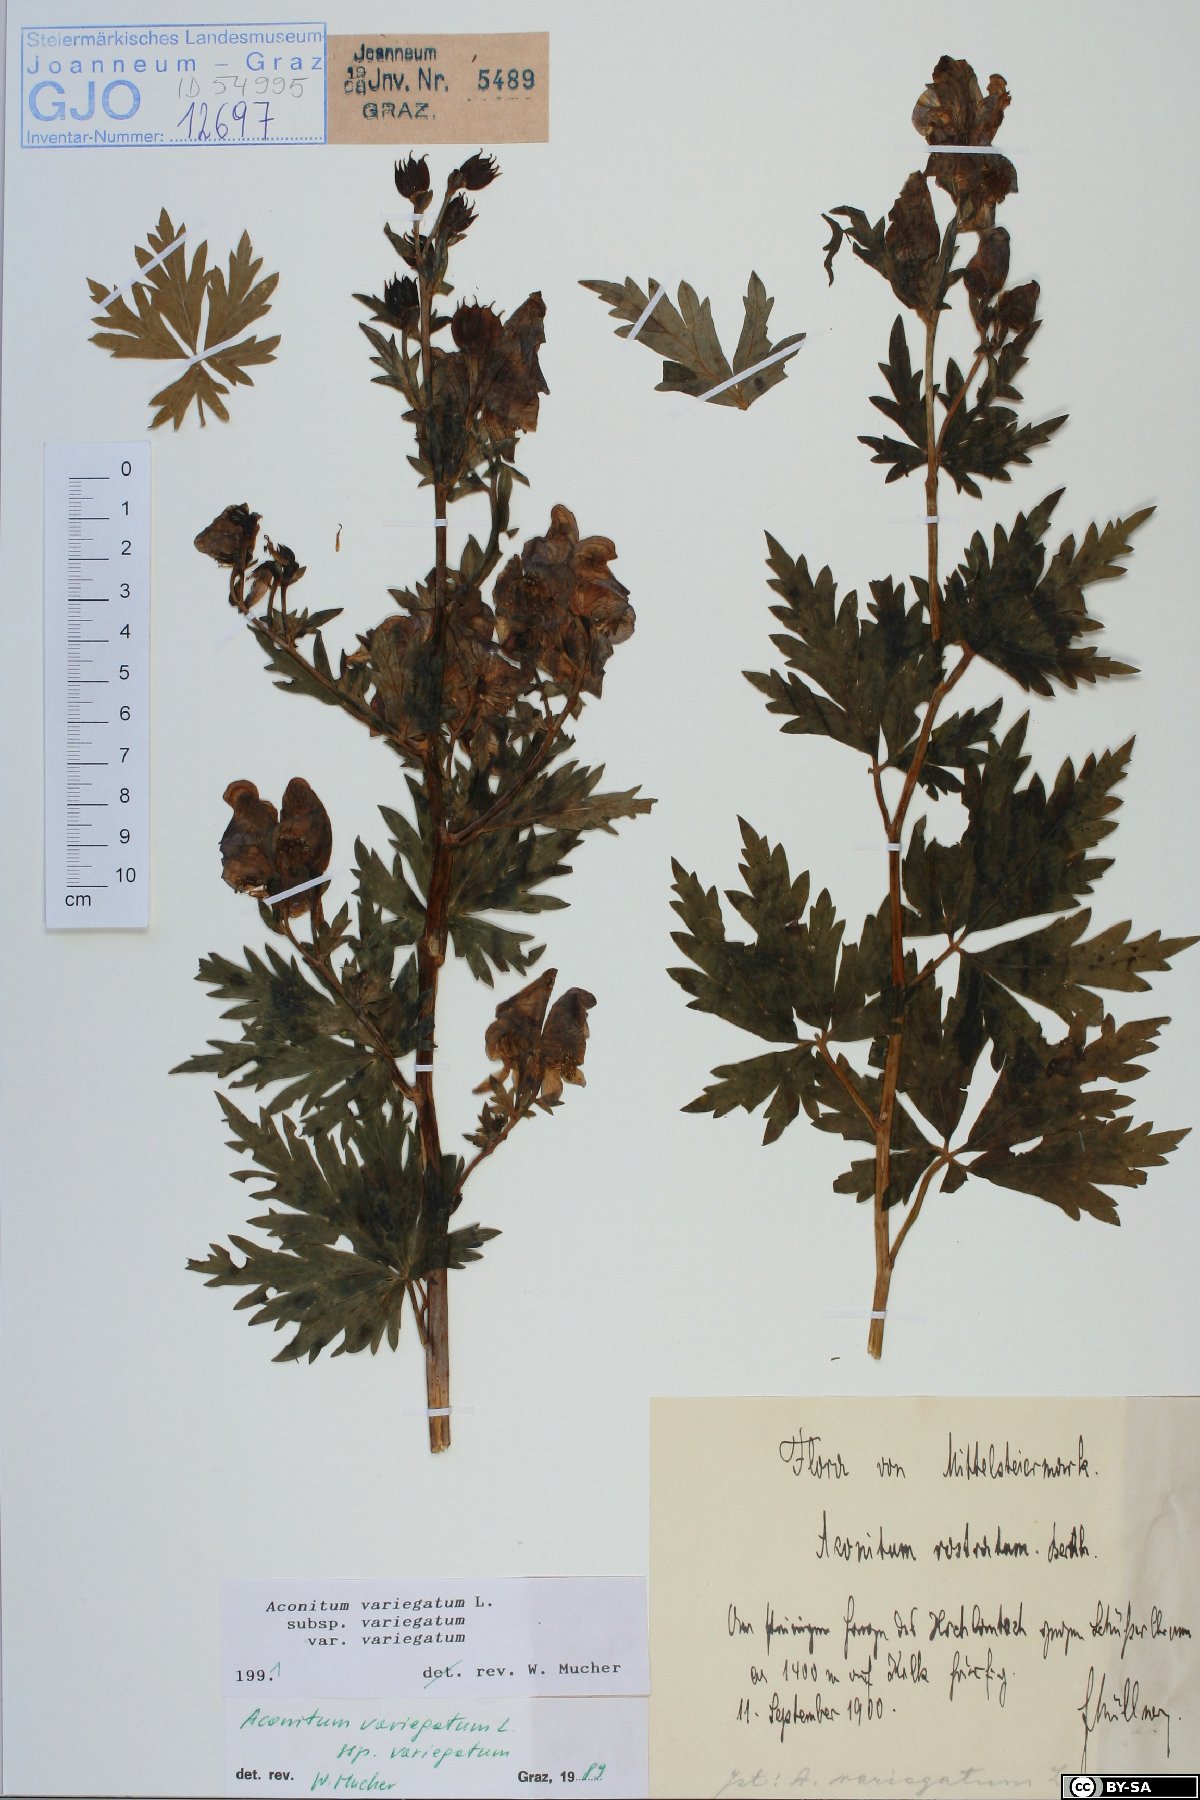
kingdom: Plantae
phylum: Tracheophyta
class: Magnoliopsida
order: Ranunculales
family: Ranunculaceae
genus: Aconitum
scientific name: Aconitum variegatum
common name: Manchurian monkshood
